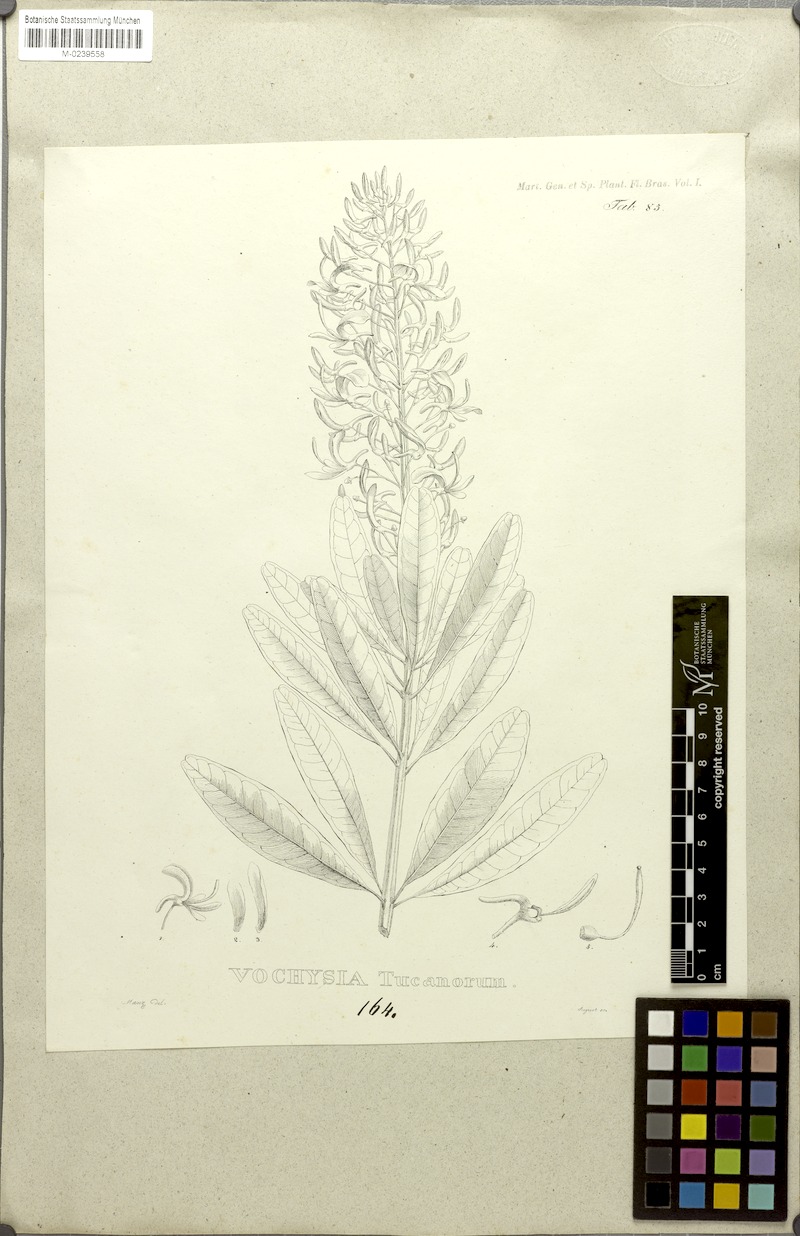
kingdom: Plantae
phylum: Tracheophyta
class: Magnoliopsida
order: Myrtales
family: Vochysiaceae
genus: Vochysia
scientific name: Vochysia tucanorum
